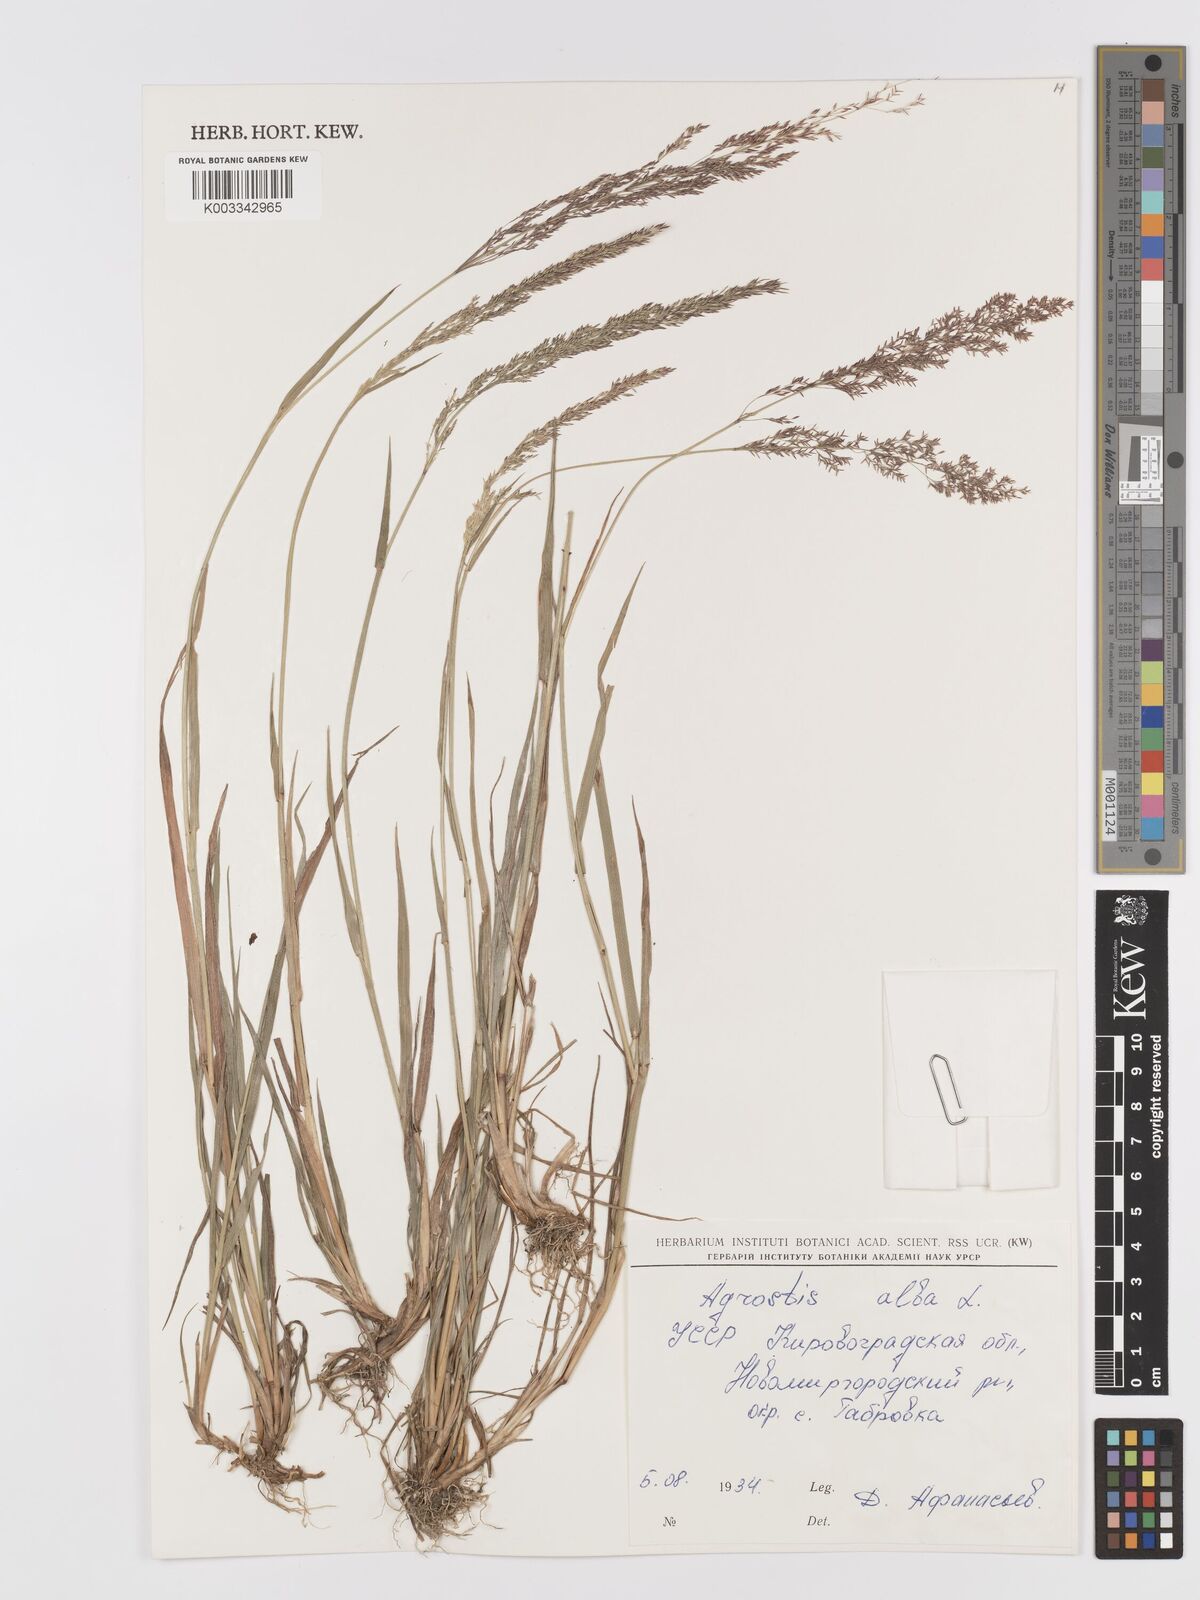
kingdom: Plantae
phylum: Tracheophyta
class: Liliopsida
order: Poales
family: Poaceae
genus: Agrostis
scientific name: Agrostis stolonifera
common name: Creeping bentgrass
